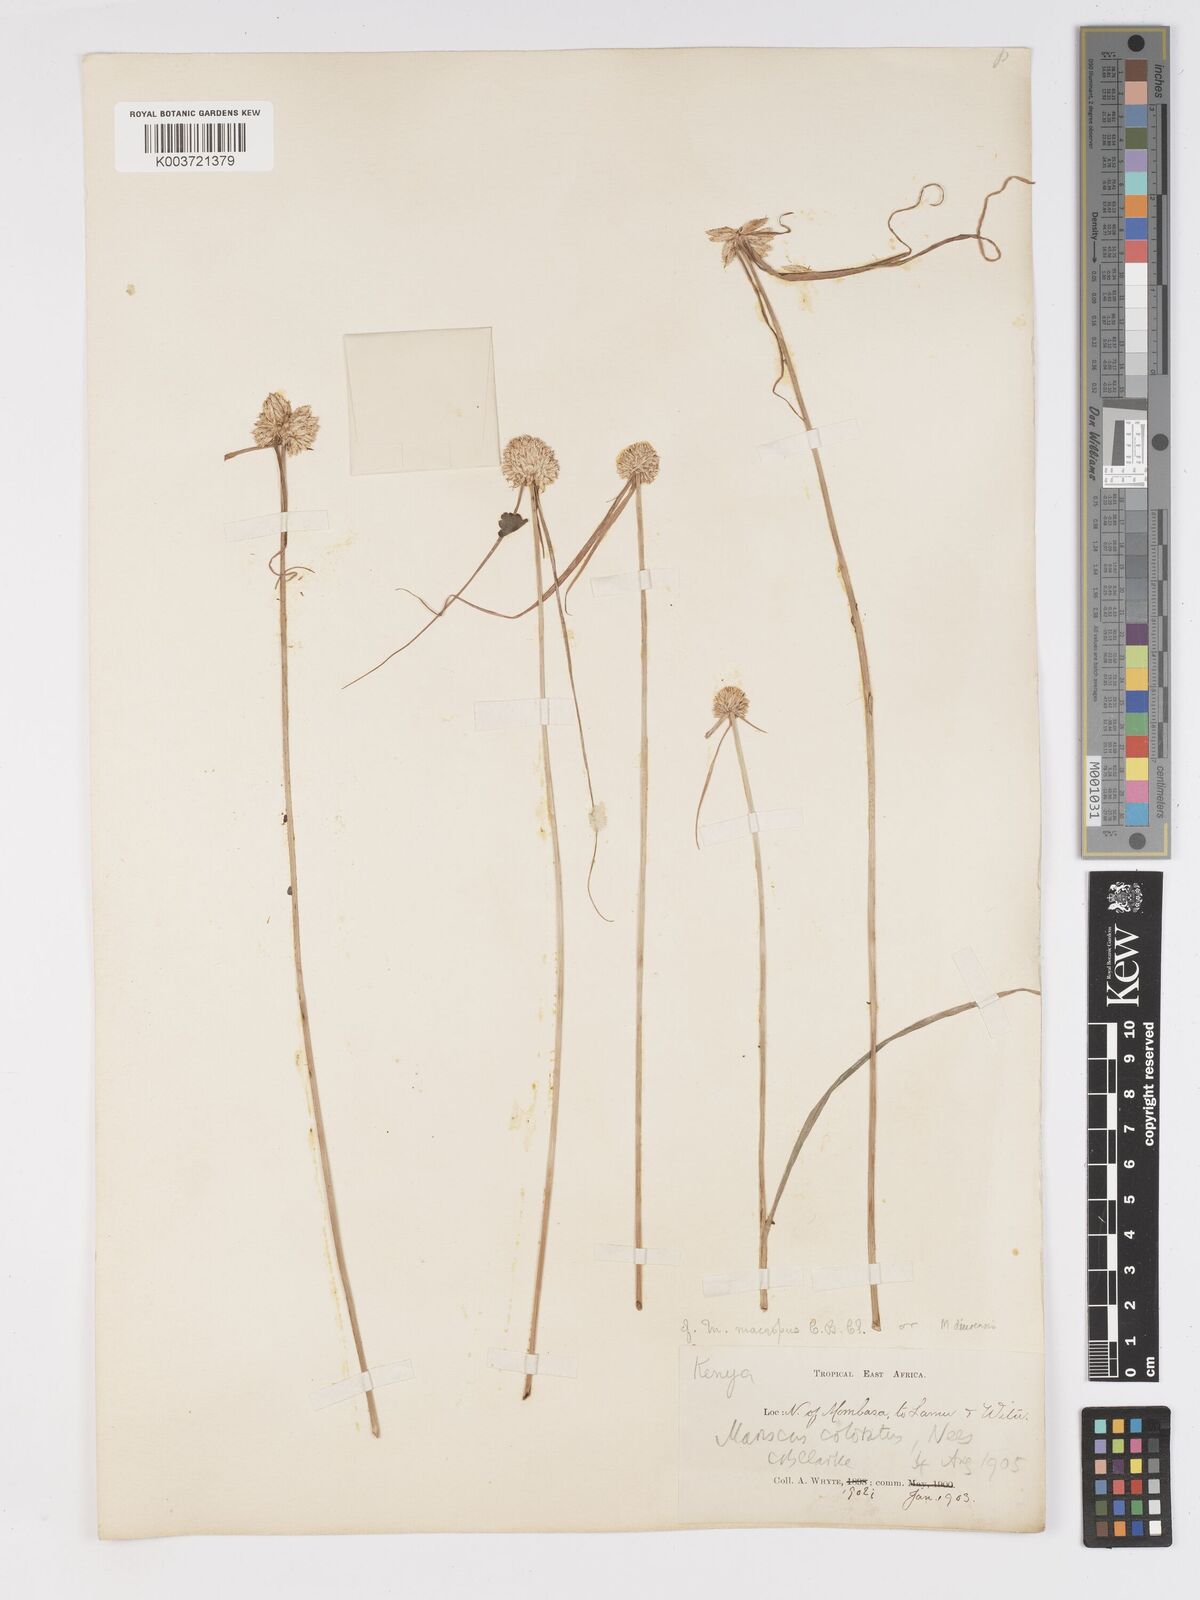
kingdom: Plantae
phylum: Tracheophyta
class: Liliopsida
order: Poales
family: Cyperaceae
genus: Cyperus
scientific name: Cyperus mollipes
